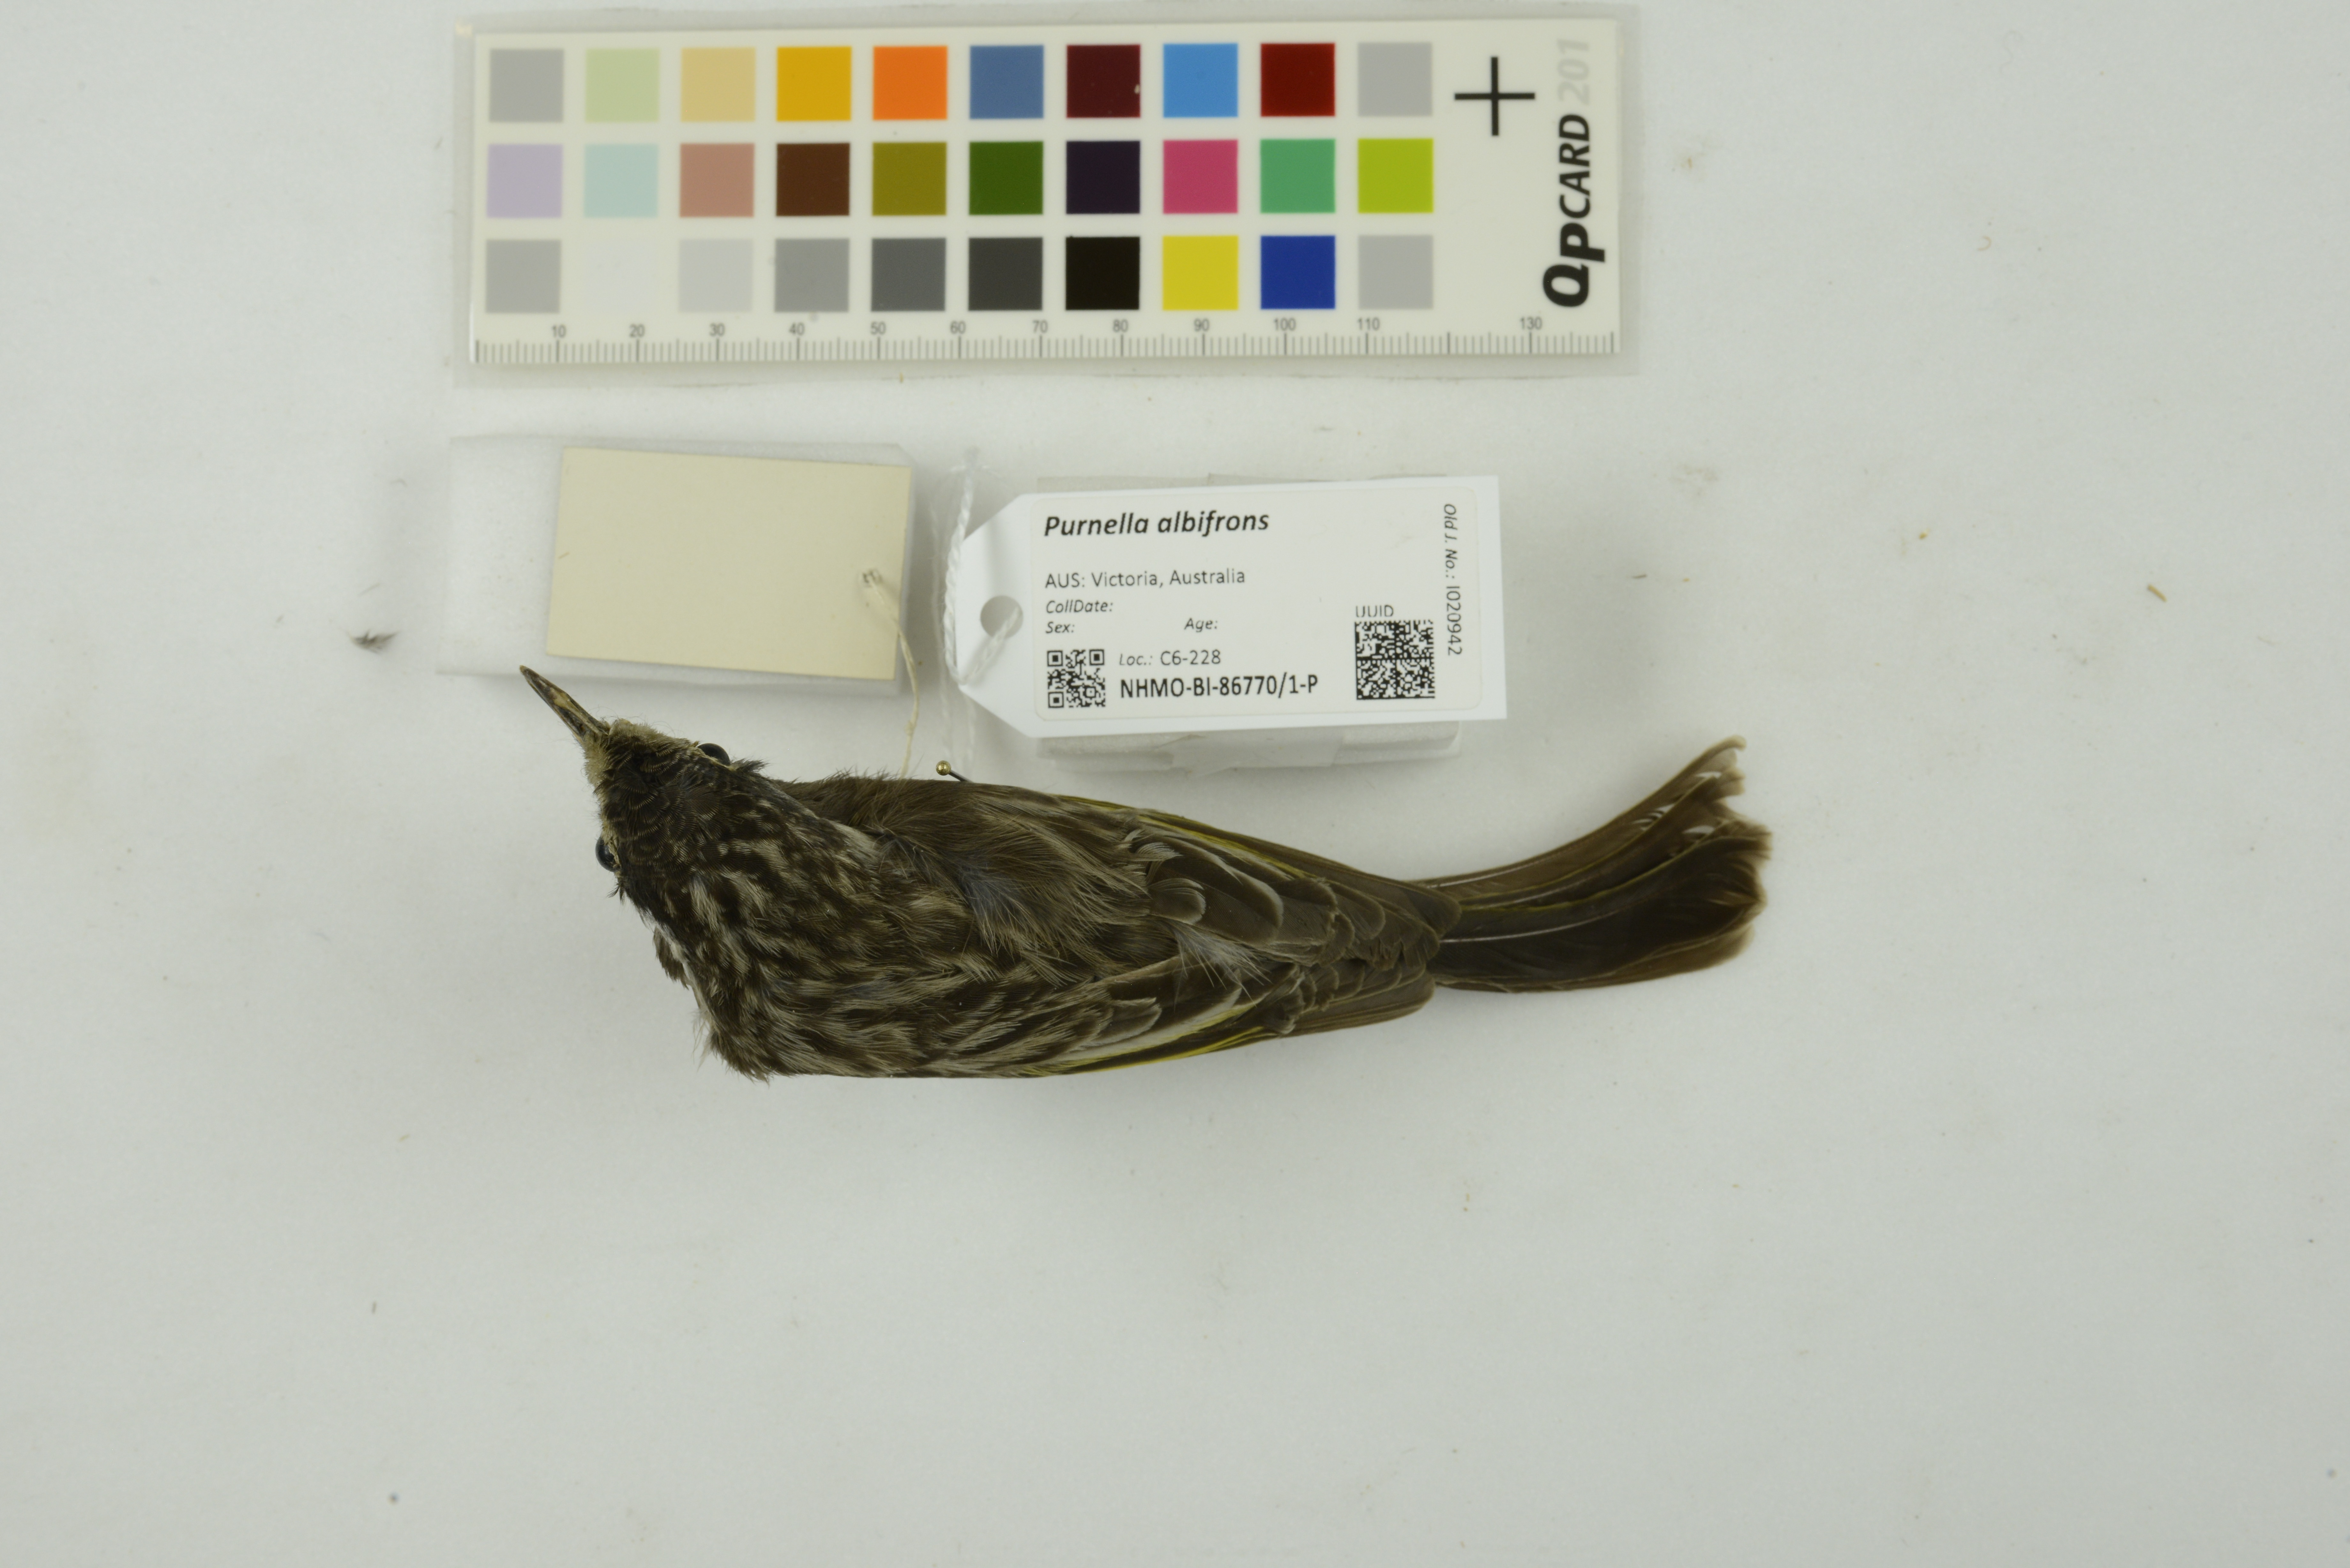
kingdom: Animalia
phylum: Chordata
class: Aves
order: Passeriformes
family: Meliphagidae
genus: Purnella
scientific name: Purnella albifrons
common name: White-fronted honeyeater
